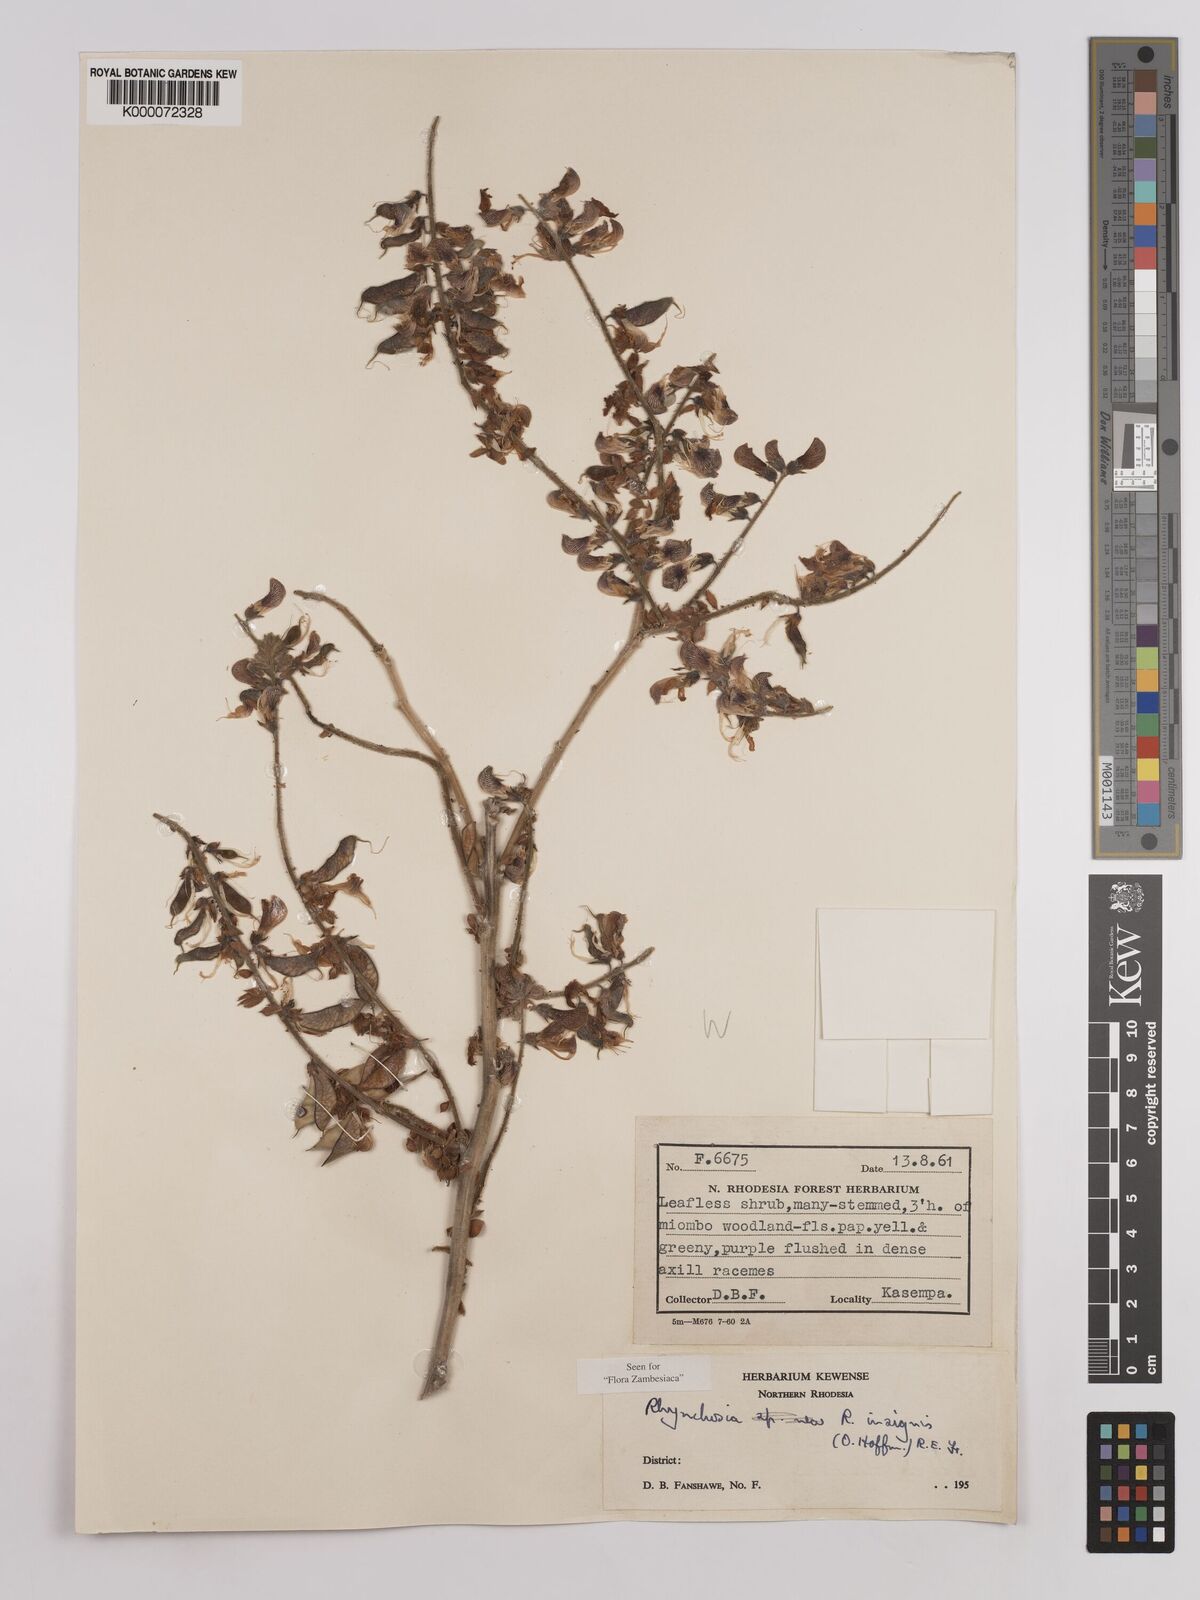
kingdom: Plantae
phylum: Tracheophyta
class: Magnoliopsida
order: Fabales
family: Fabaceae
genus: Rhynchosia
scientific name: Rhynchosia insignis
